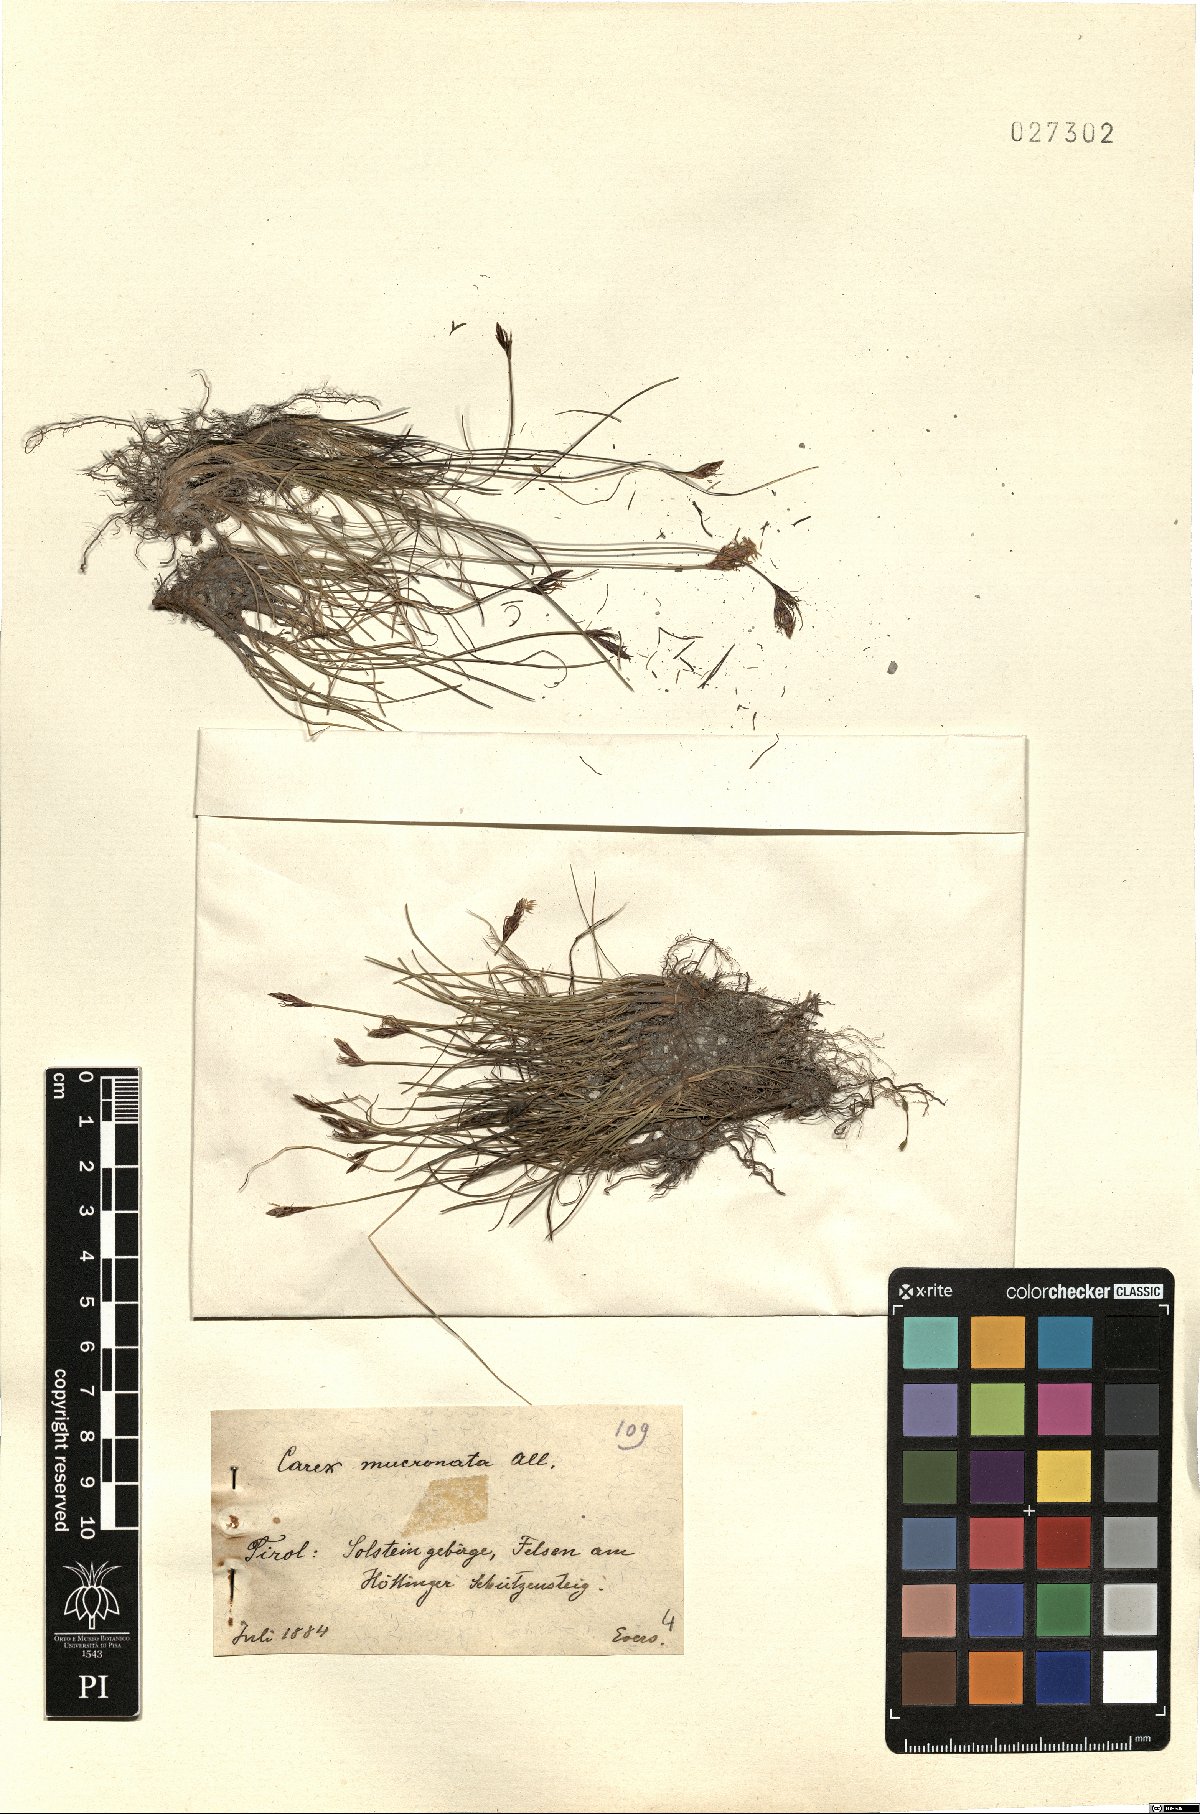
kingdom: Plantae
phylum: Tracheophyta
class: Liliopsida
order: Poales
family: Cyperaceae
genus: Carex
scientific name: Carex mucronata
